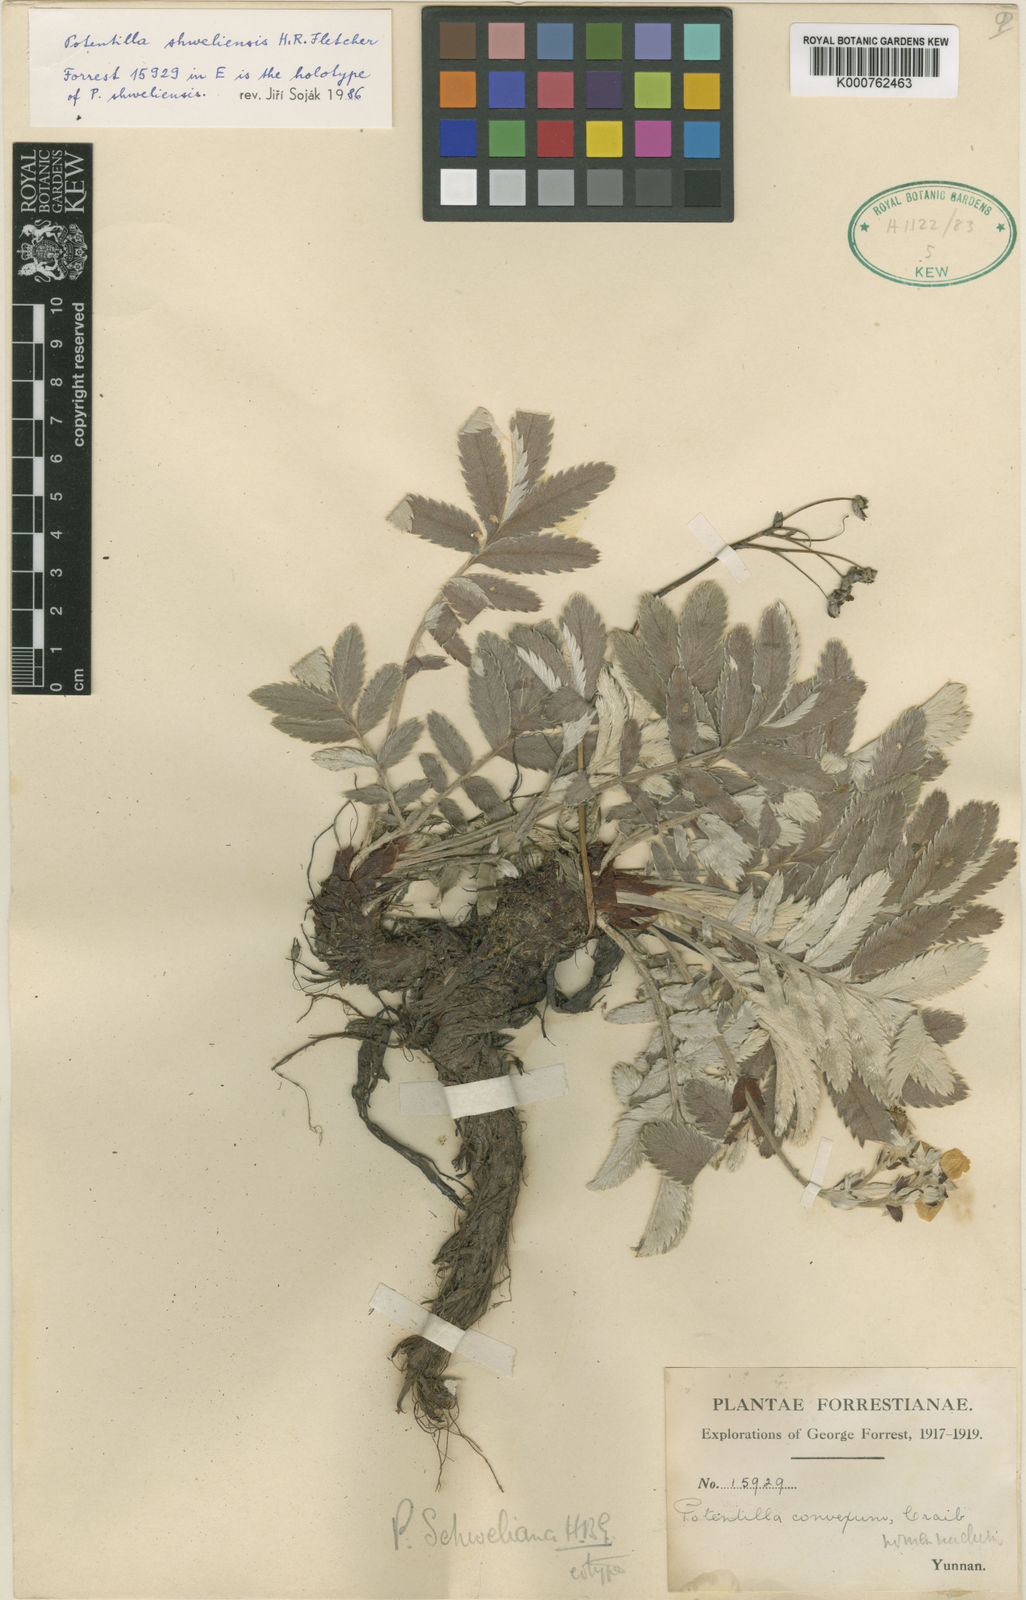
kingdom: Plantae
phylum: Tracheophyta
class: Magnoliopsida
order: Rosales
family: Rosaceae
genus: Potentilla
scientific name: Potentilla
